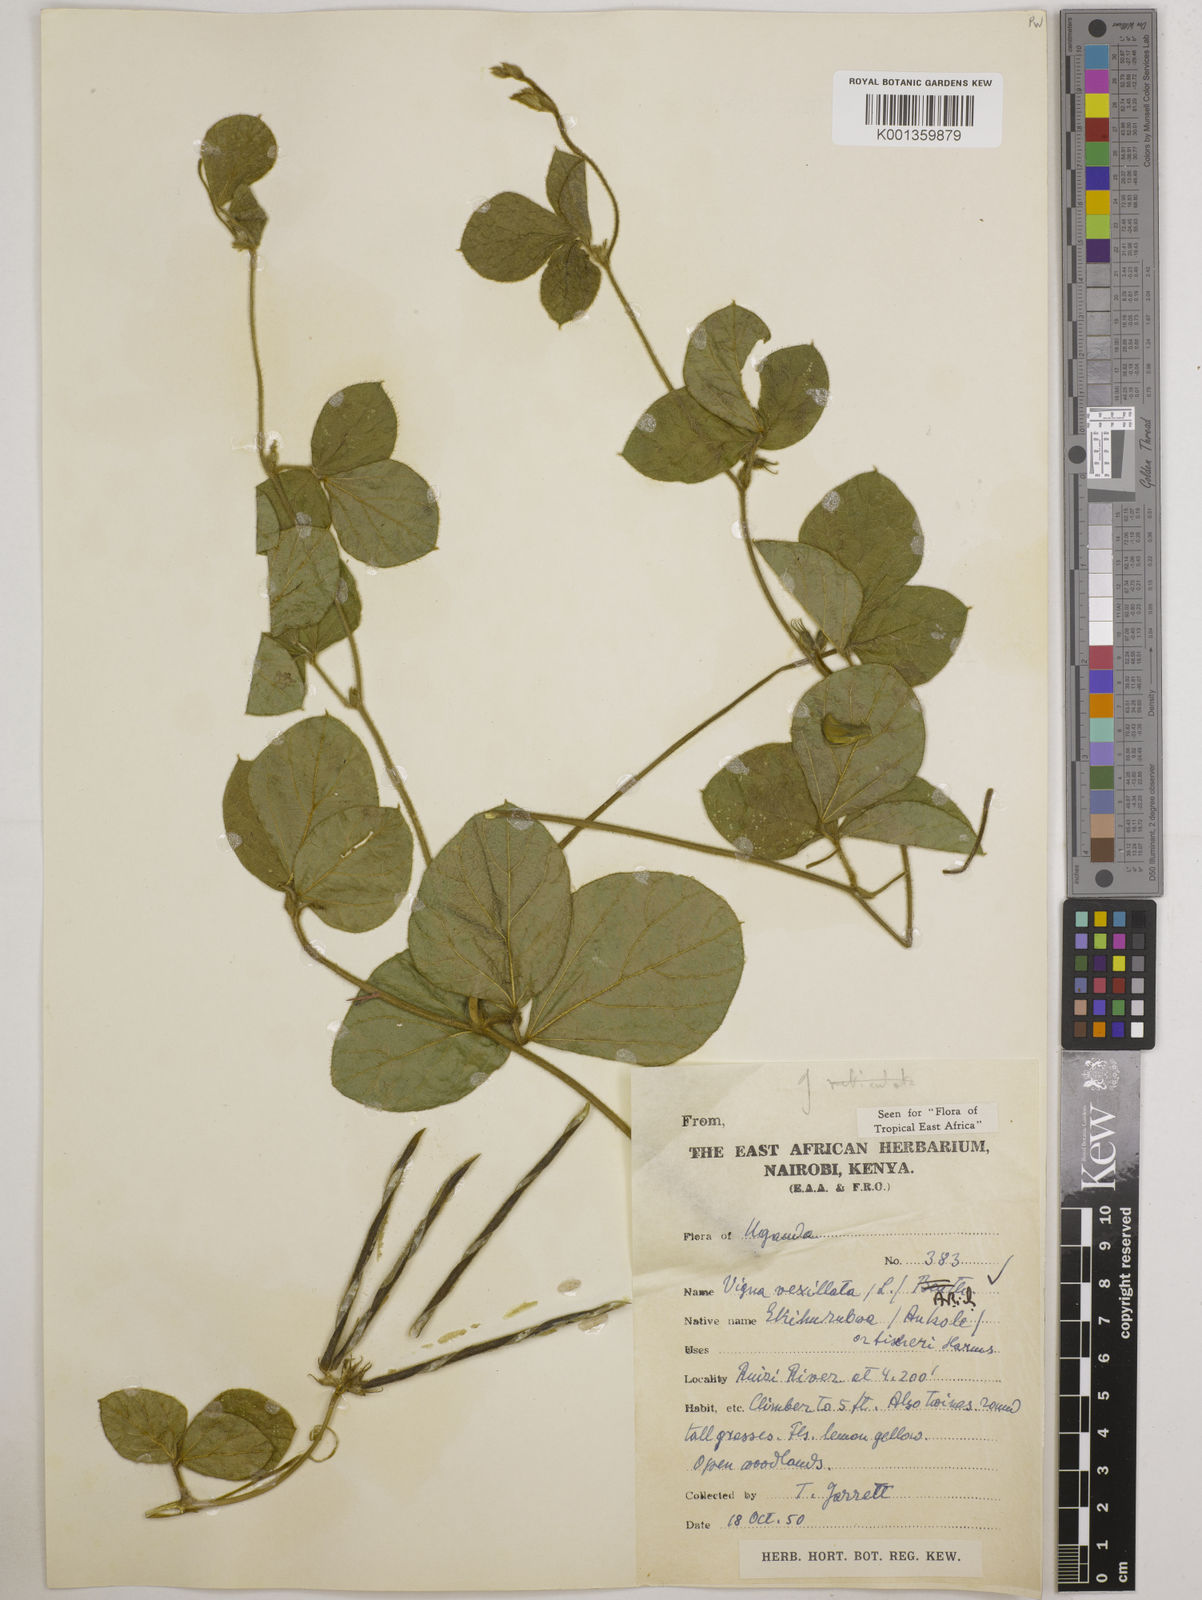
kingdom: Plantae
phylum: Tracheophyta
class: Magnoliopsida
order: Fabales
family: Fabaceae
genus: Vigna
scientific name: Vigna vexillata
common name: Zombi pea
